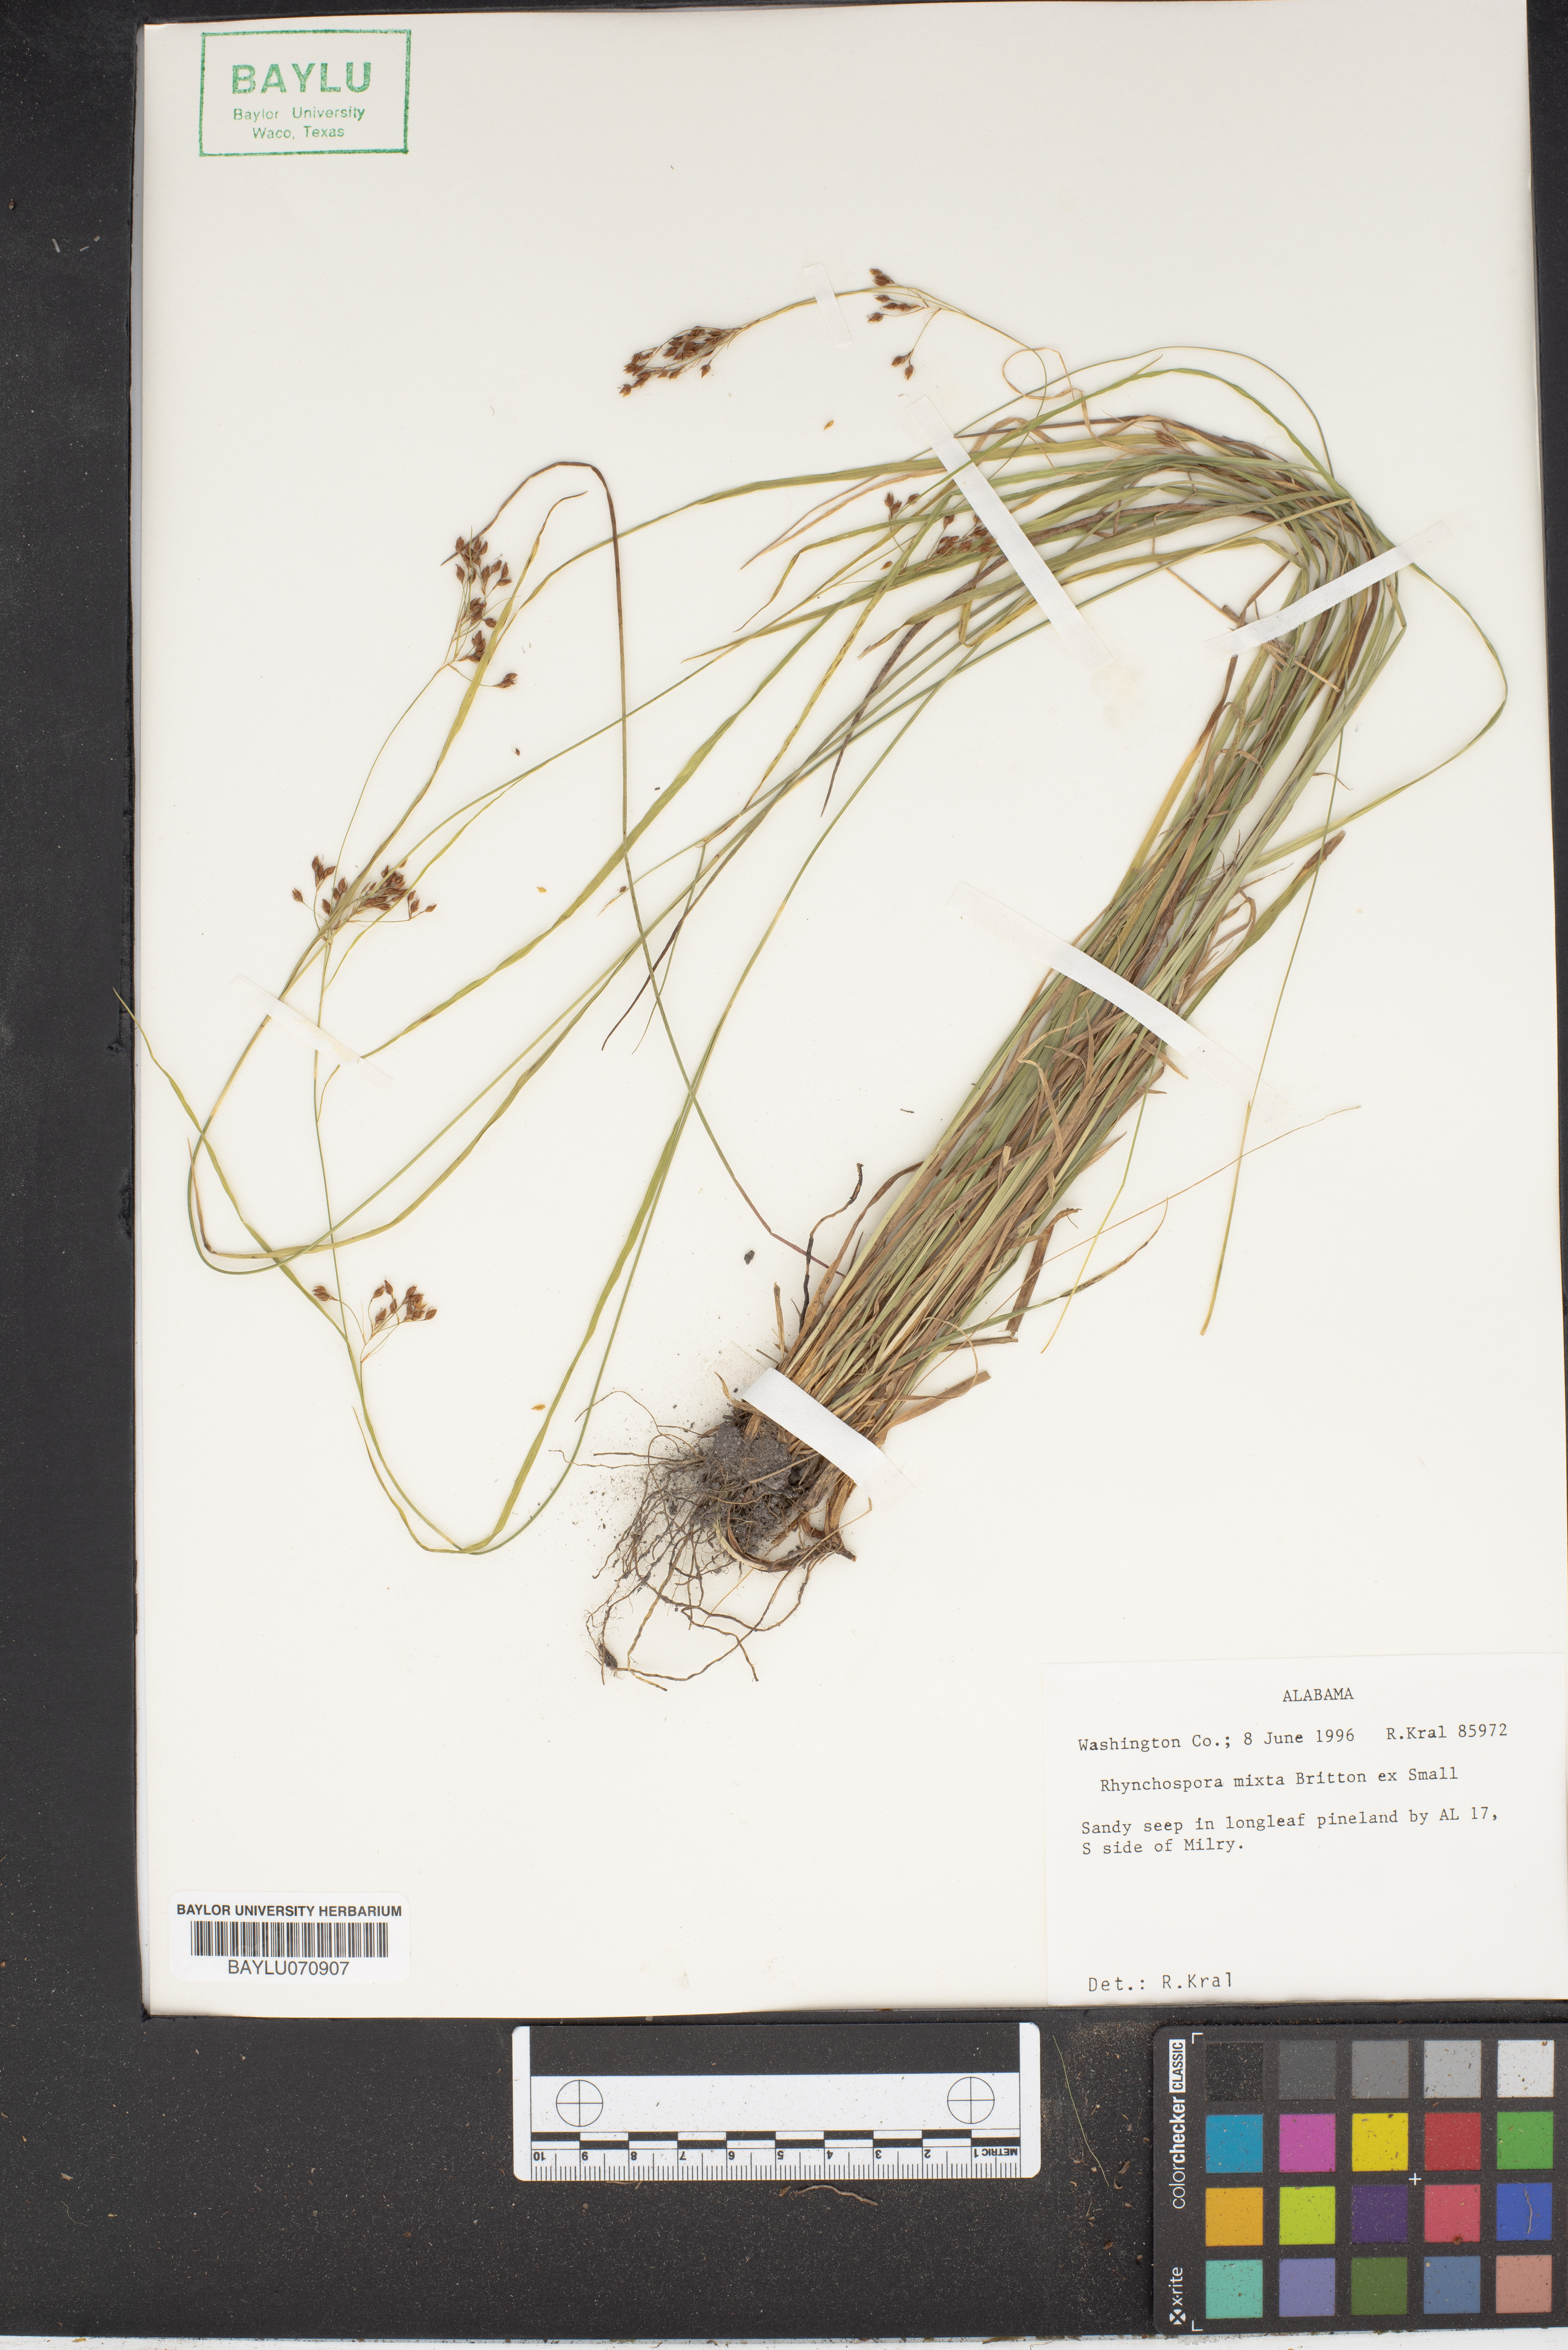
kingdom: Plantae
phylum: Tracheophyta
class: Liliopsida
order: Poales
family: Cyperaceae
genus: Rhynchospora
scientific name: Rhynchospora mixta
